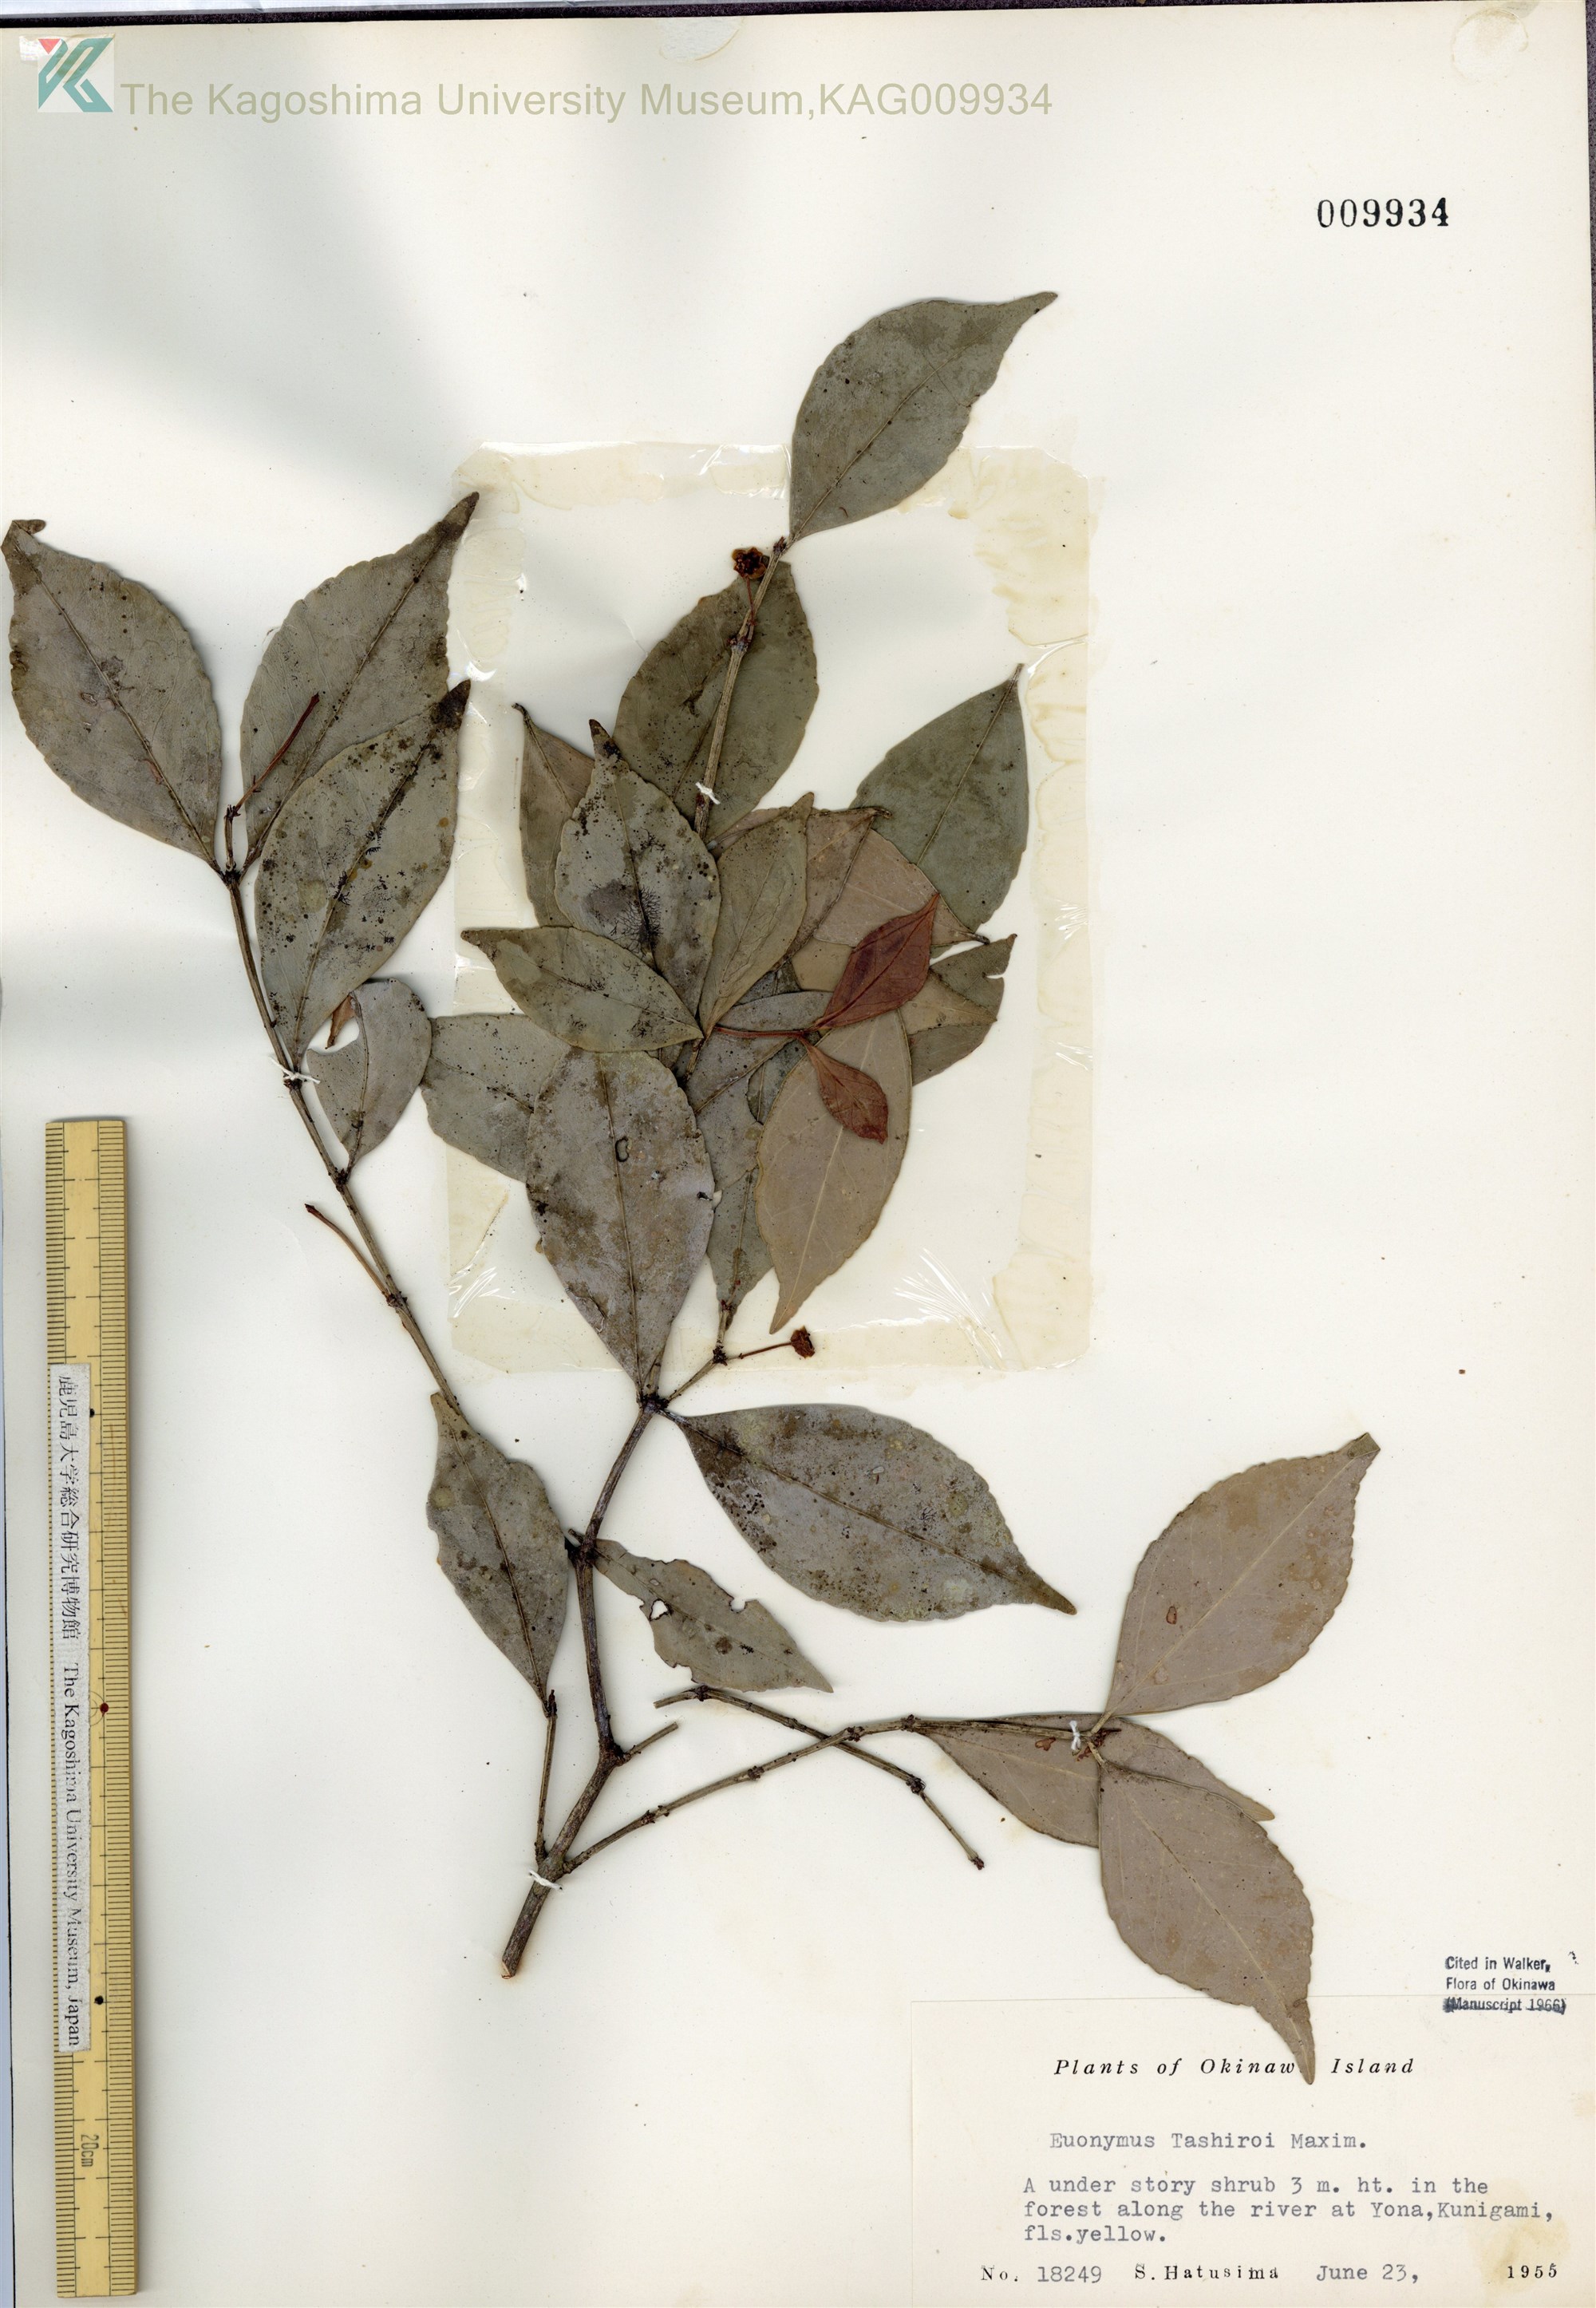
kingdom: Plantae
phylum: Tracheophyta
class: Magnoliopsida
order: Celastrales
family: Celastraceae
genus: Euonymus
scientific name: Euonymus tashiroi
